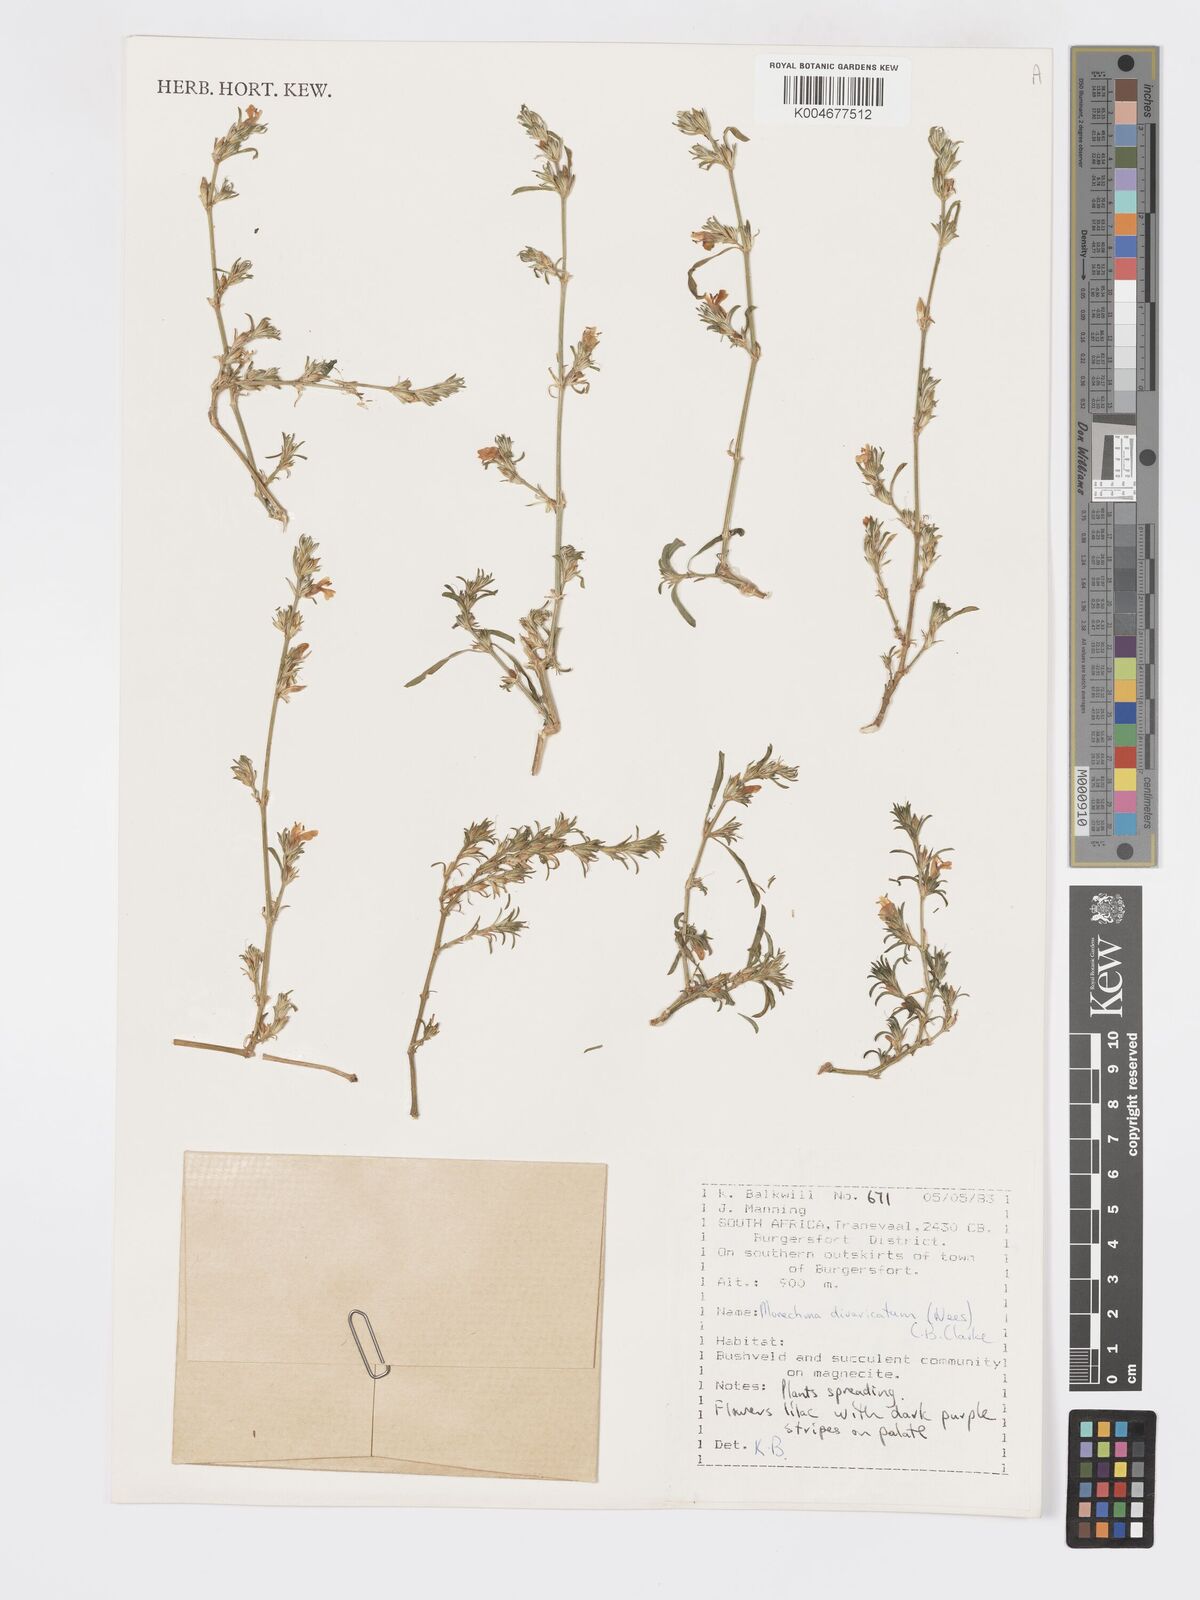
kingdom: Plantae
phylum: Tracheophyta
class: Magnoliopsida
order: Lamiales
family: Acanthaceae
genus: Pogonospermum
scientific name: Pogonospermum
